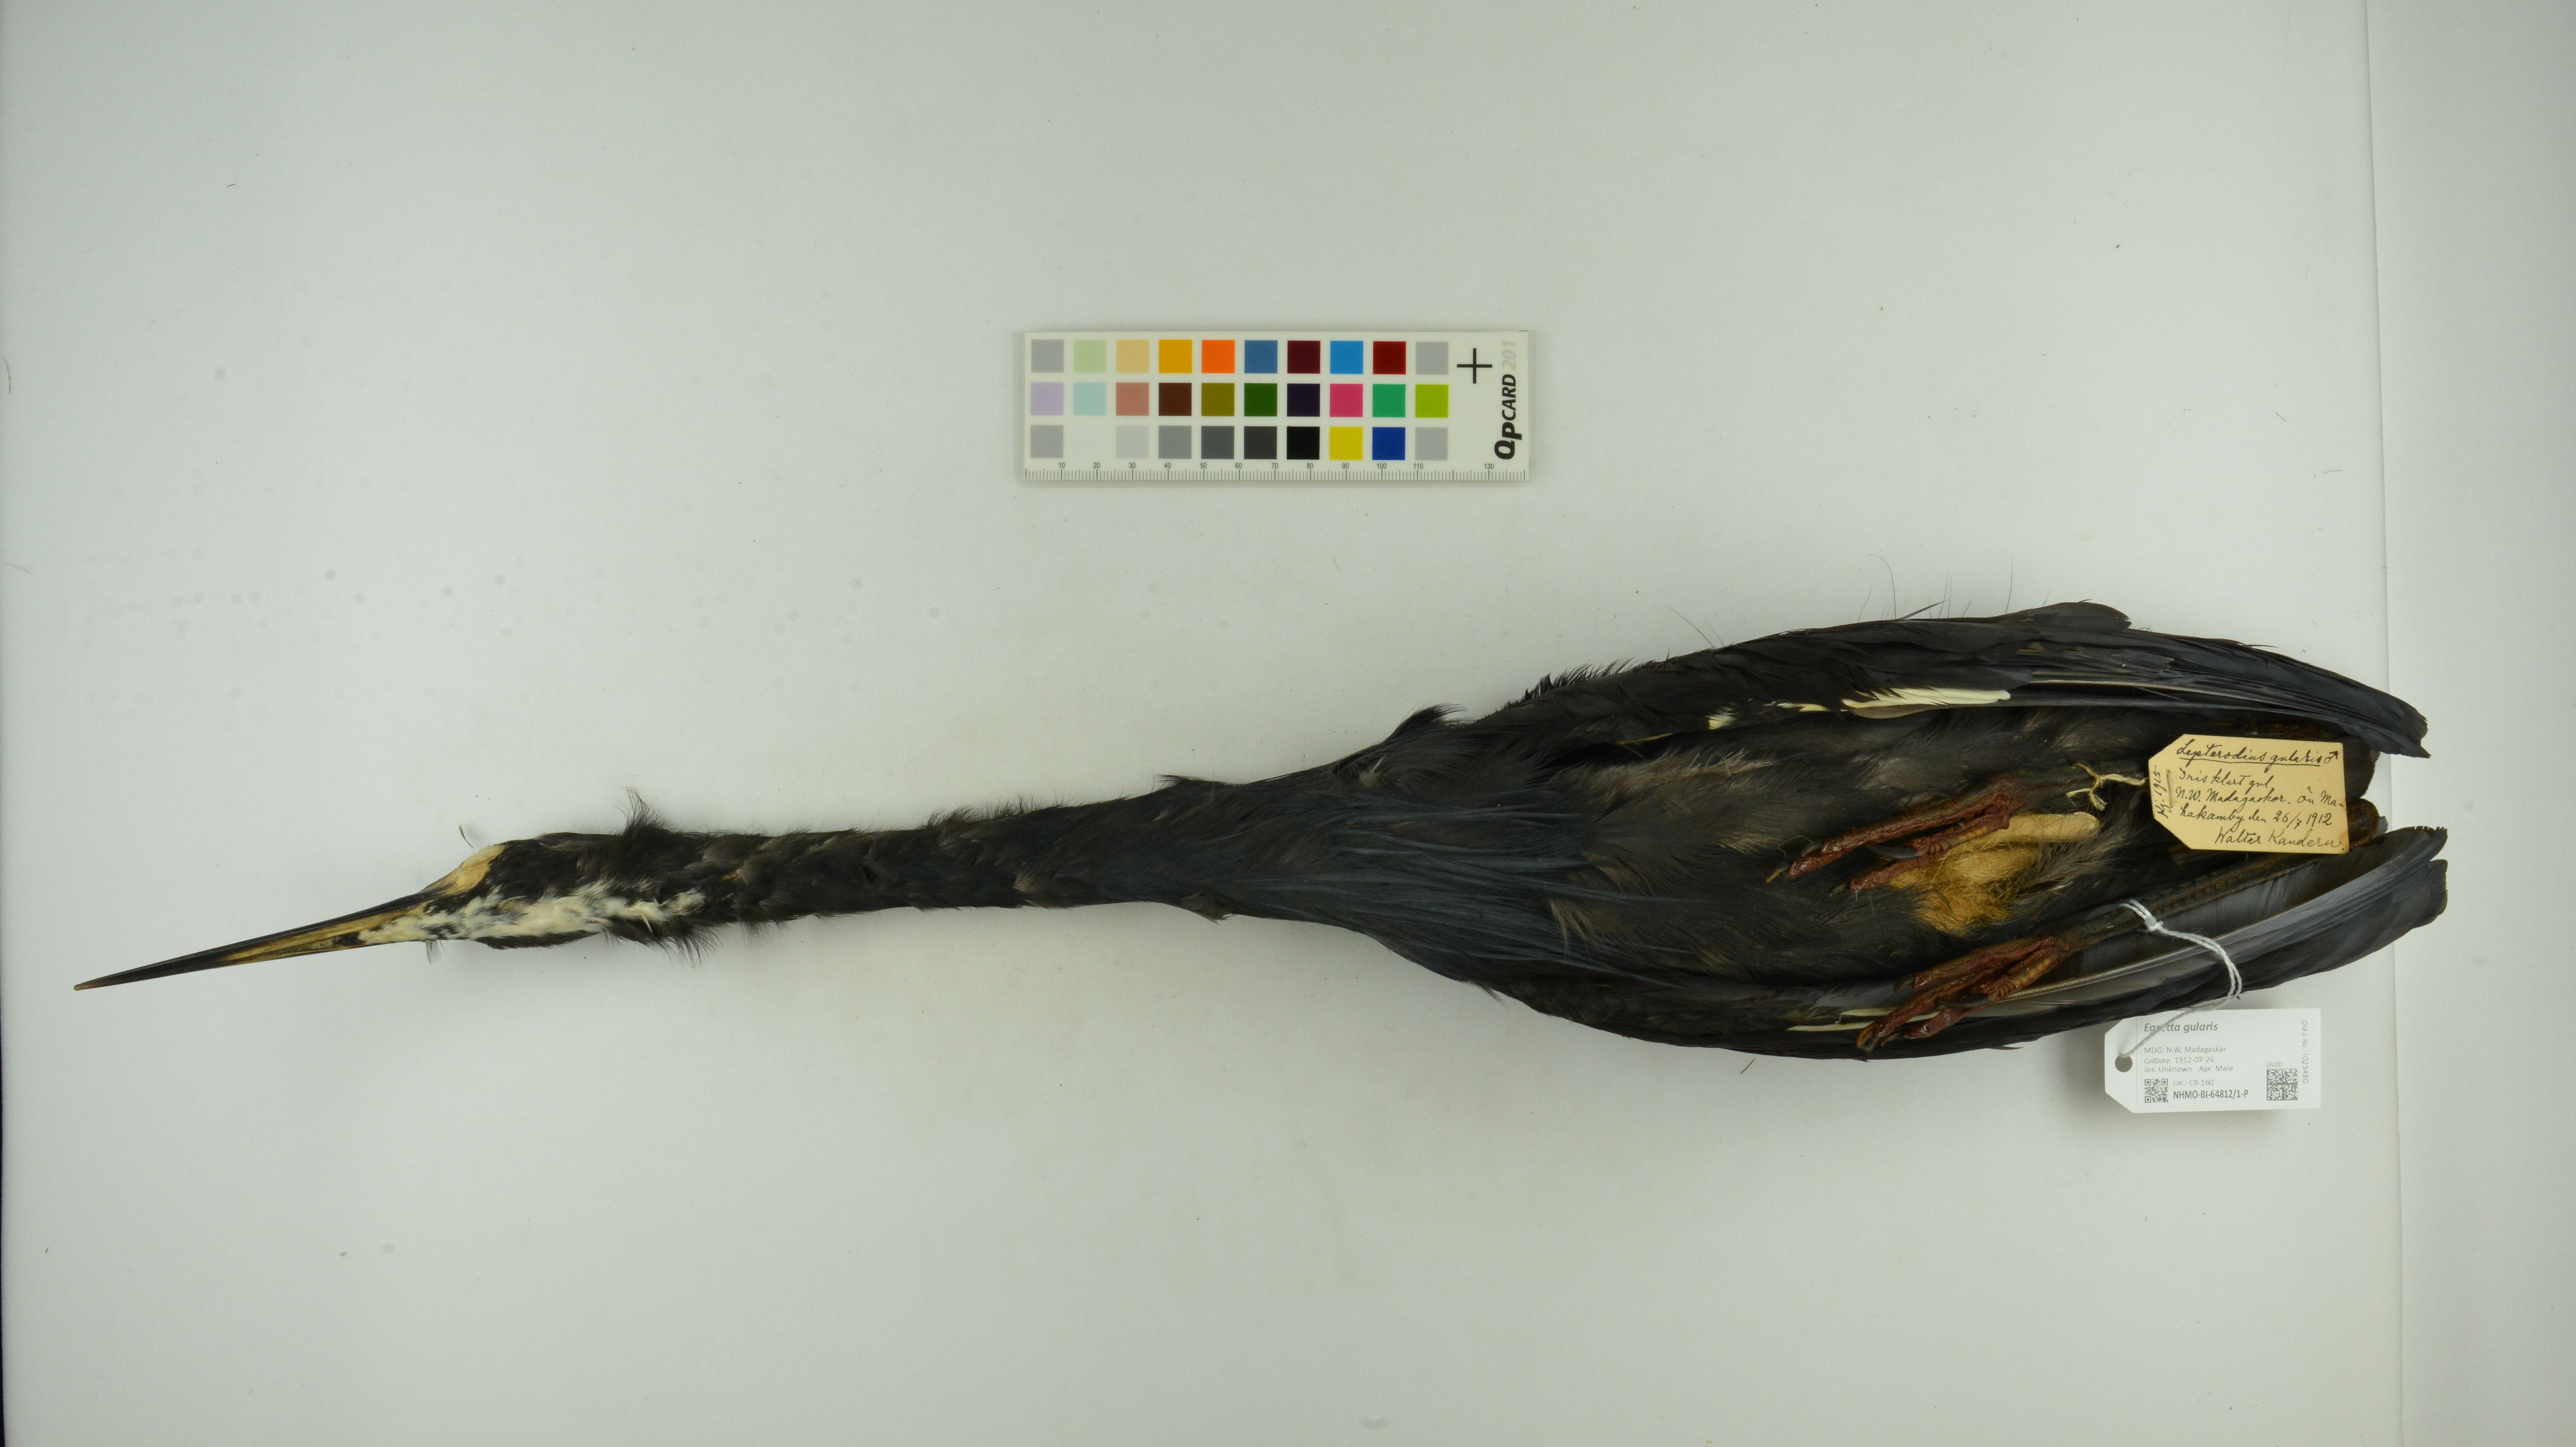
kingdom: Animalia
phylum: Chordata
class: Aves
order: Pelecaniformes
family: Ardeidae
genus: Egretta
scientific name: Egretta gularis
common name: Western reef-heron
